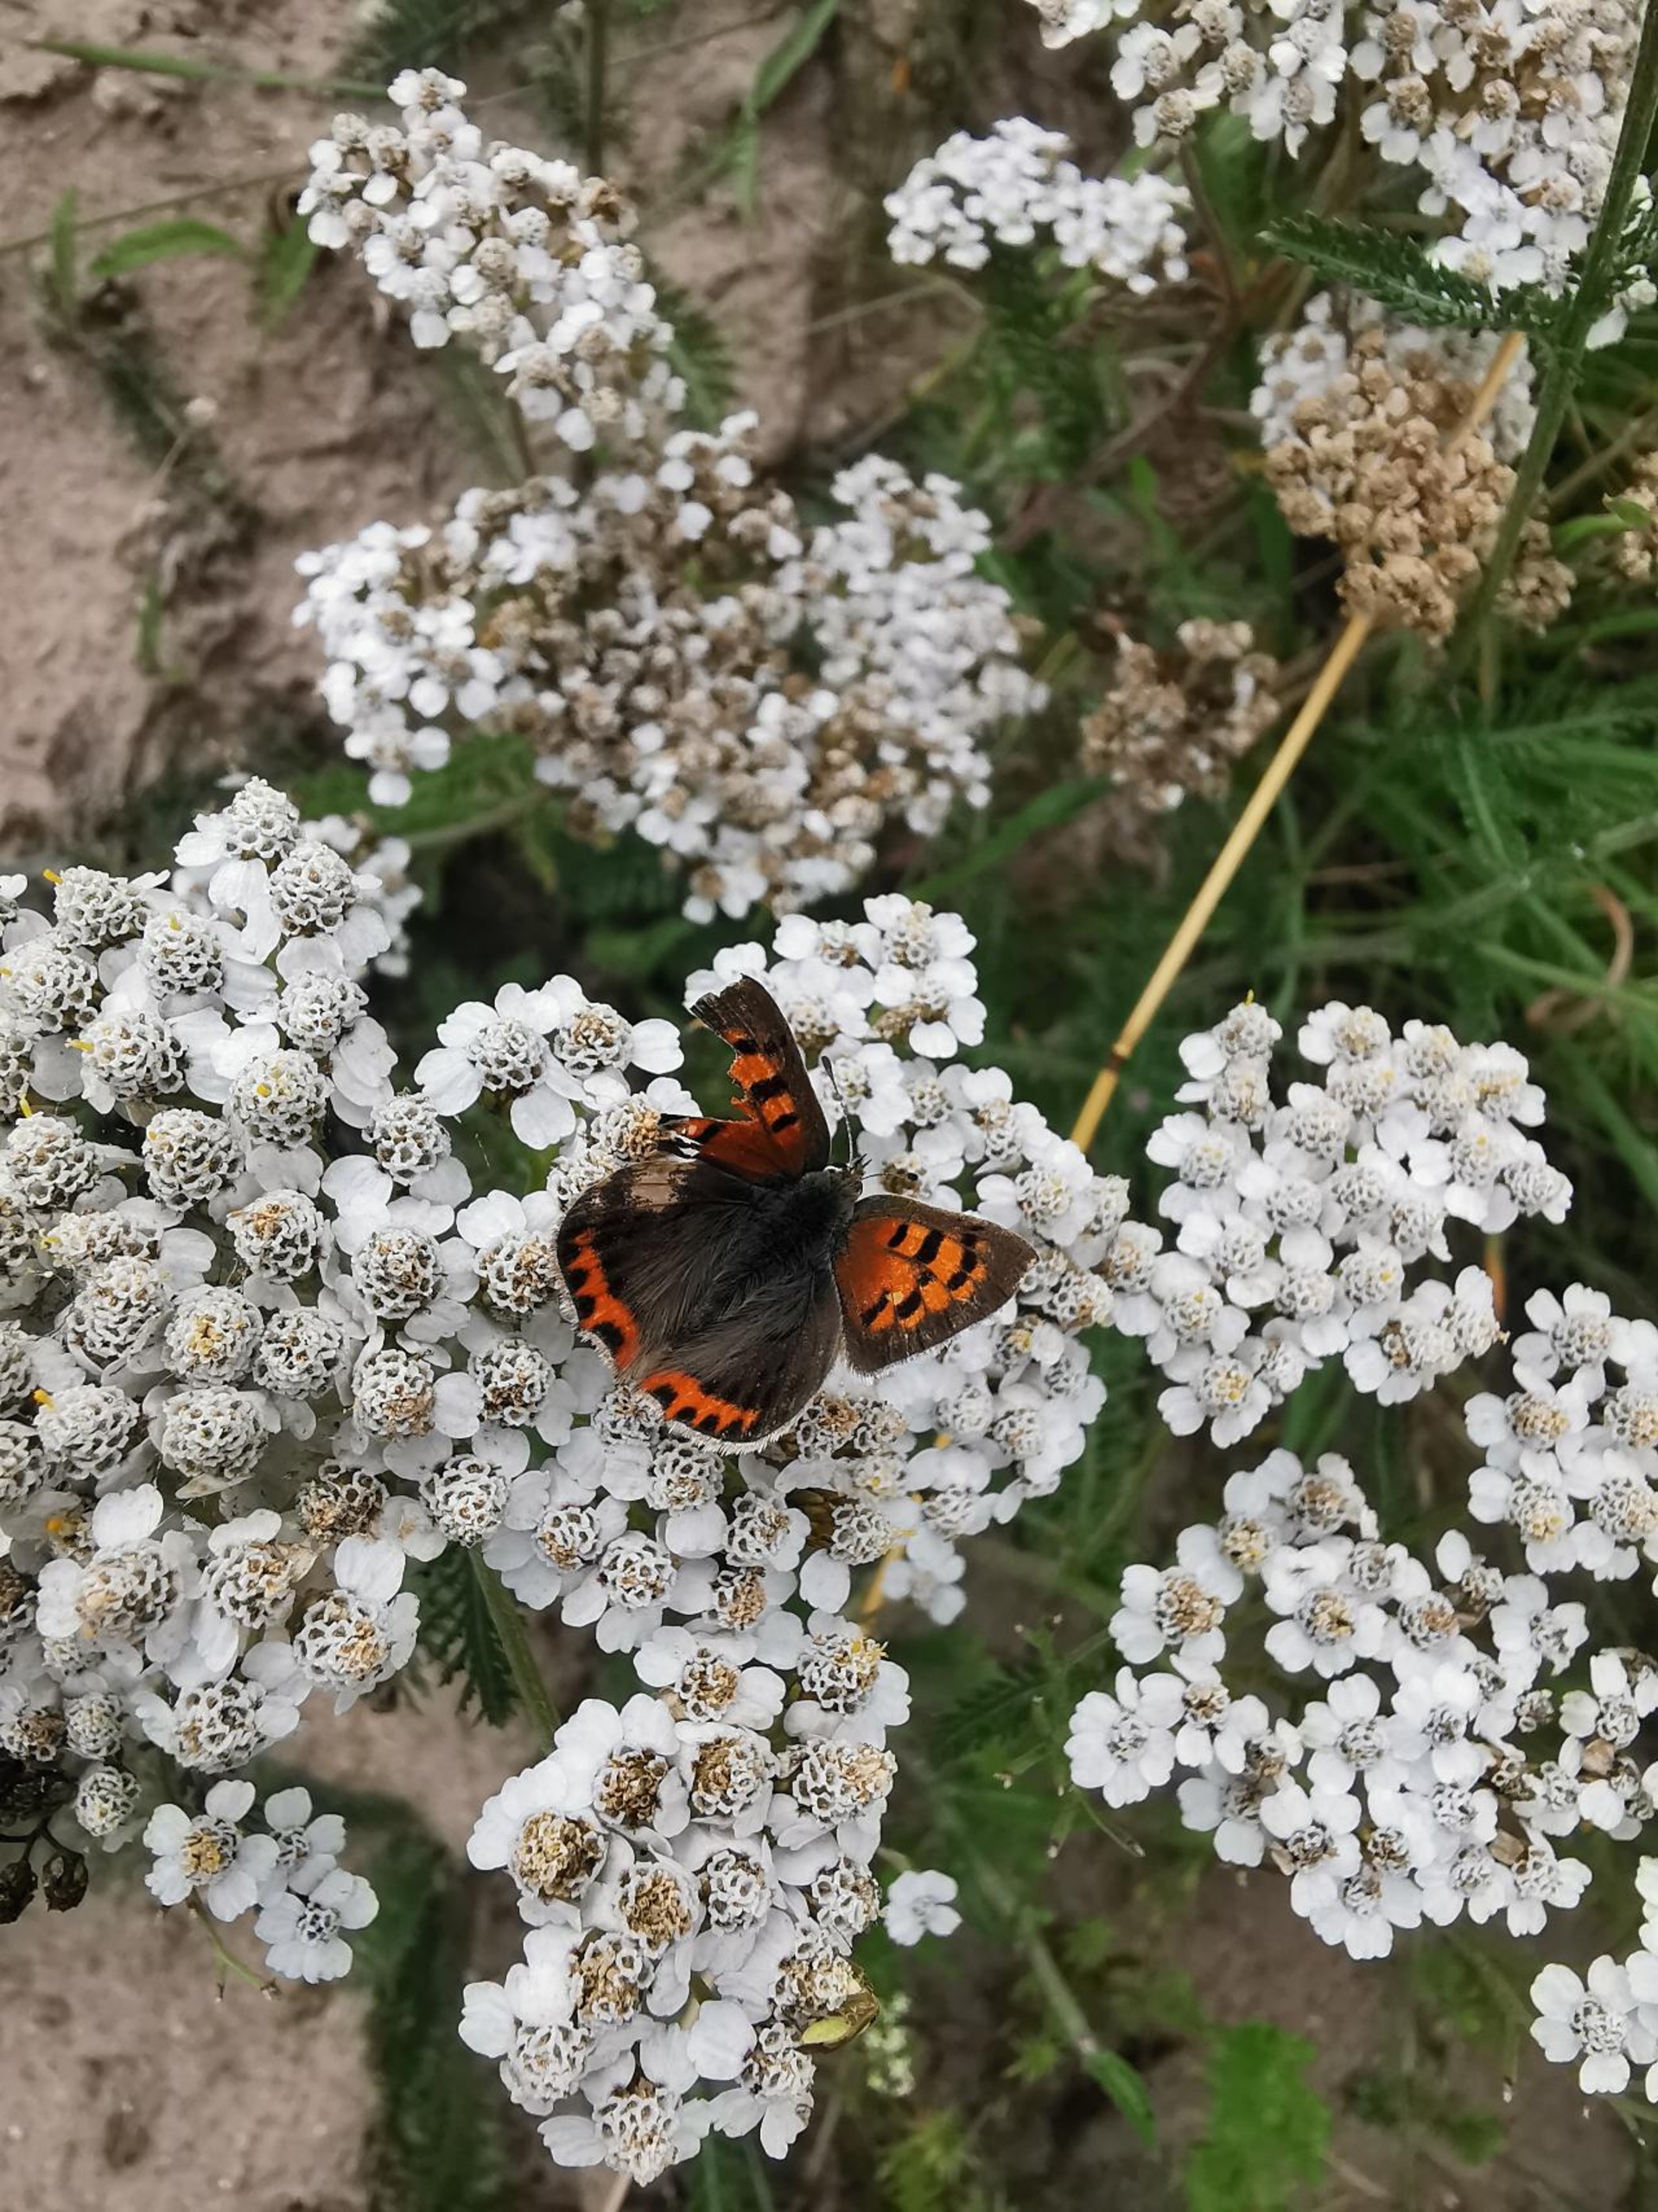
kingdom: Animalia
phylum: Arthropoda
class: Insecta
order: Lepidoptera
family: Lycaenidae
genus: Lycaena
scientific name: Lycaena phlaeas
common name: Lille ildfugl
